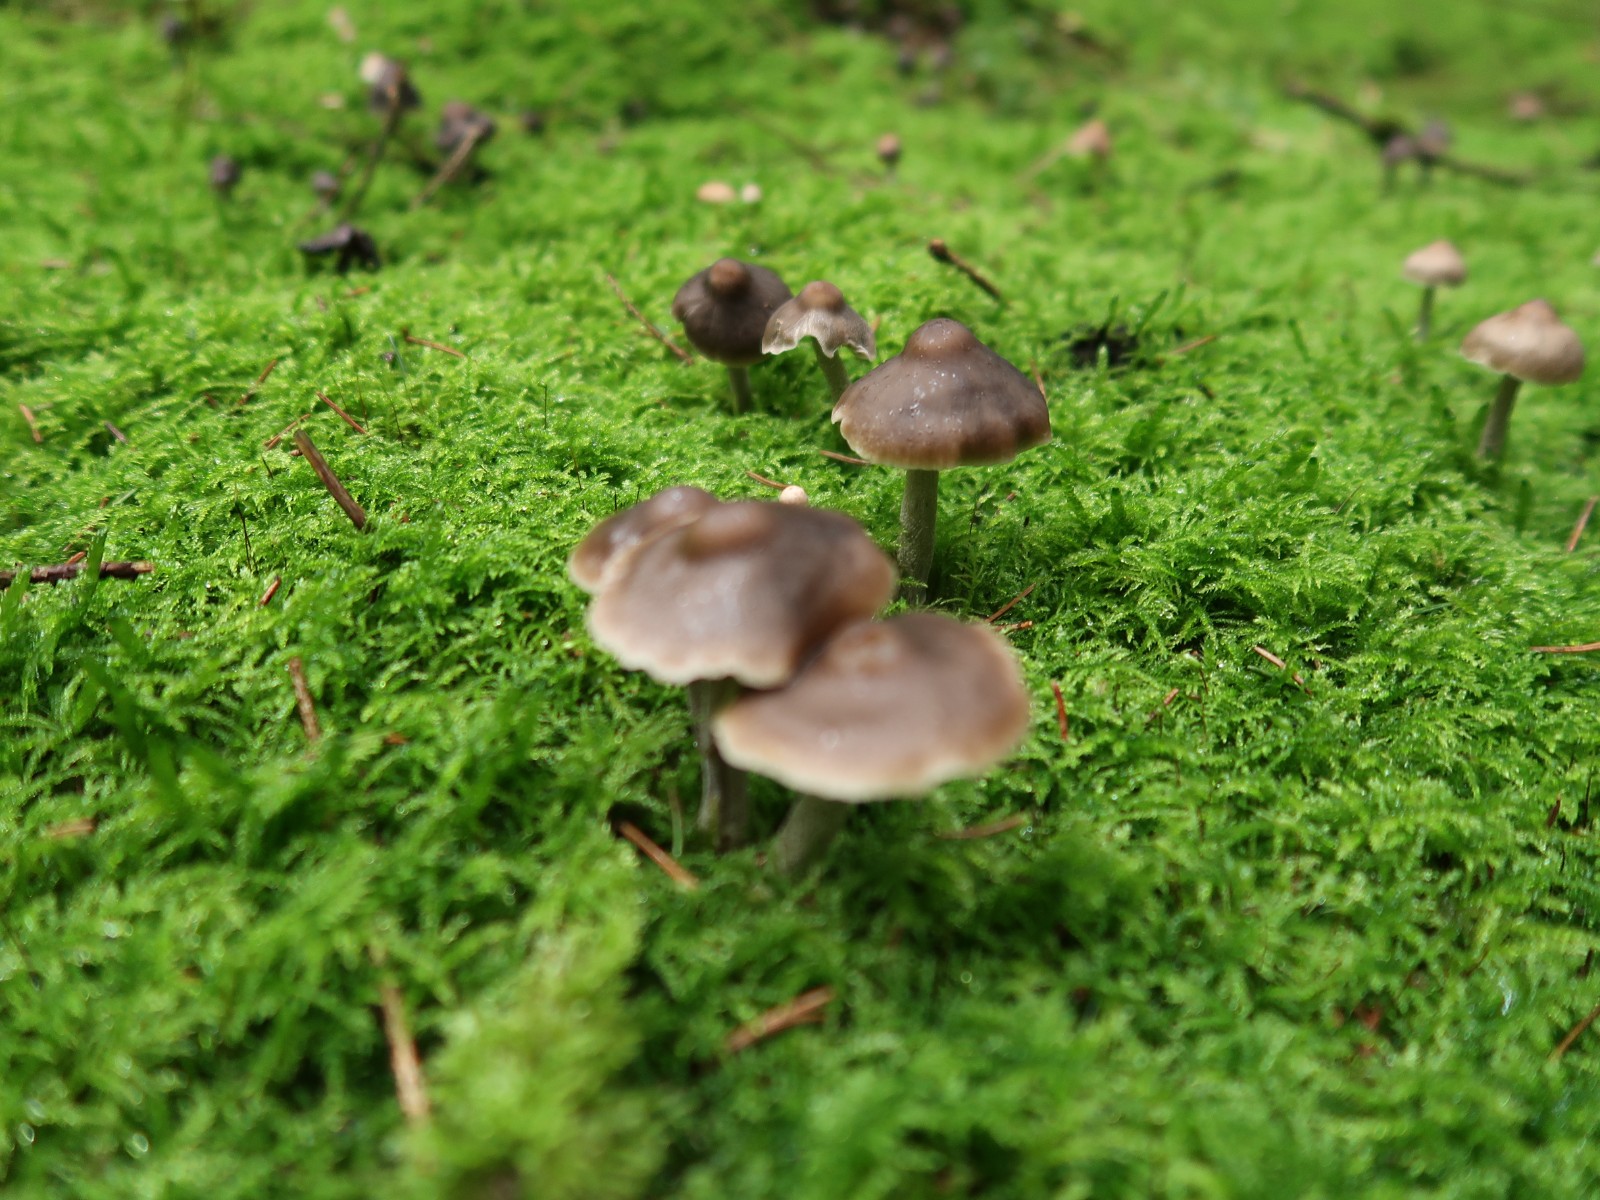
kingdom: Fungi
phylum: Basidiomycota
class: Agaricomycetes
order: Agaricales
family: Cortinariaceae
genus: Cortinarius
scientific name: Cortinarius
